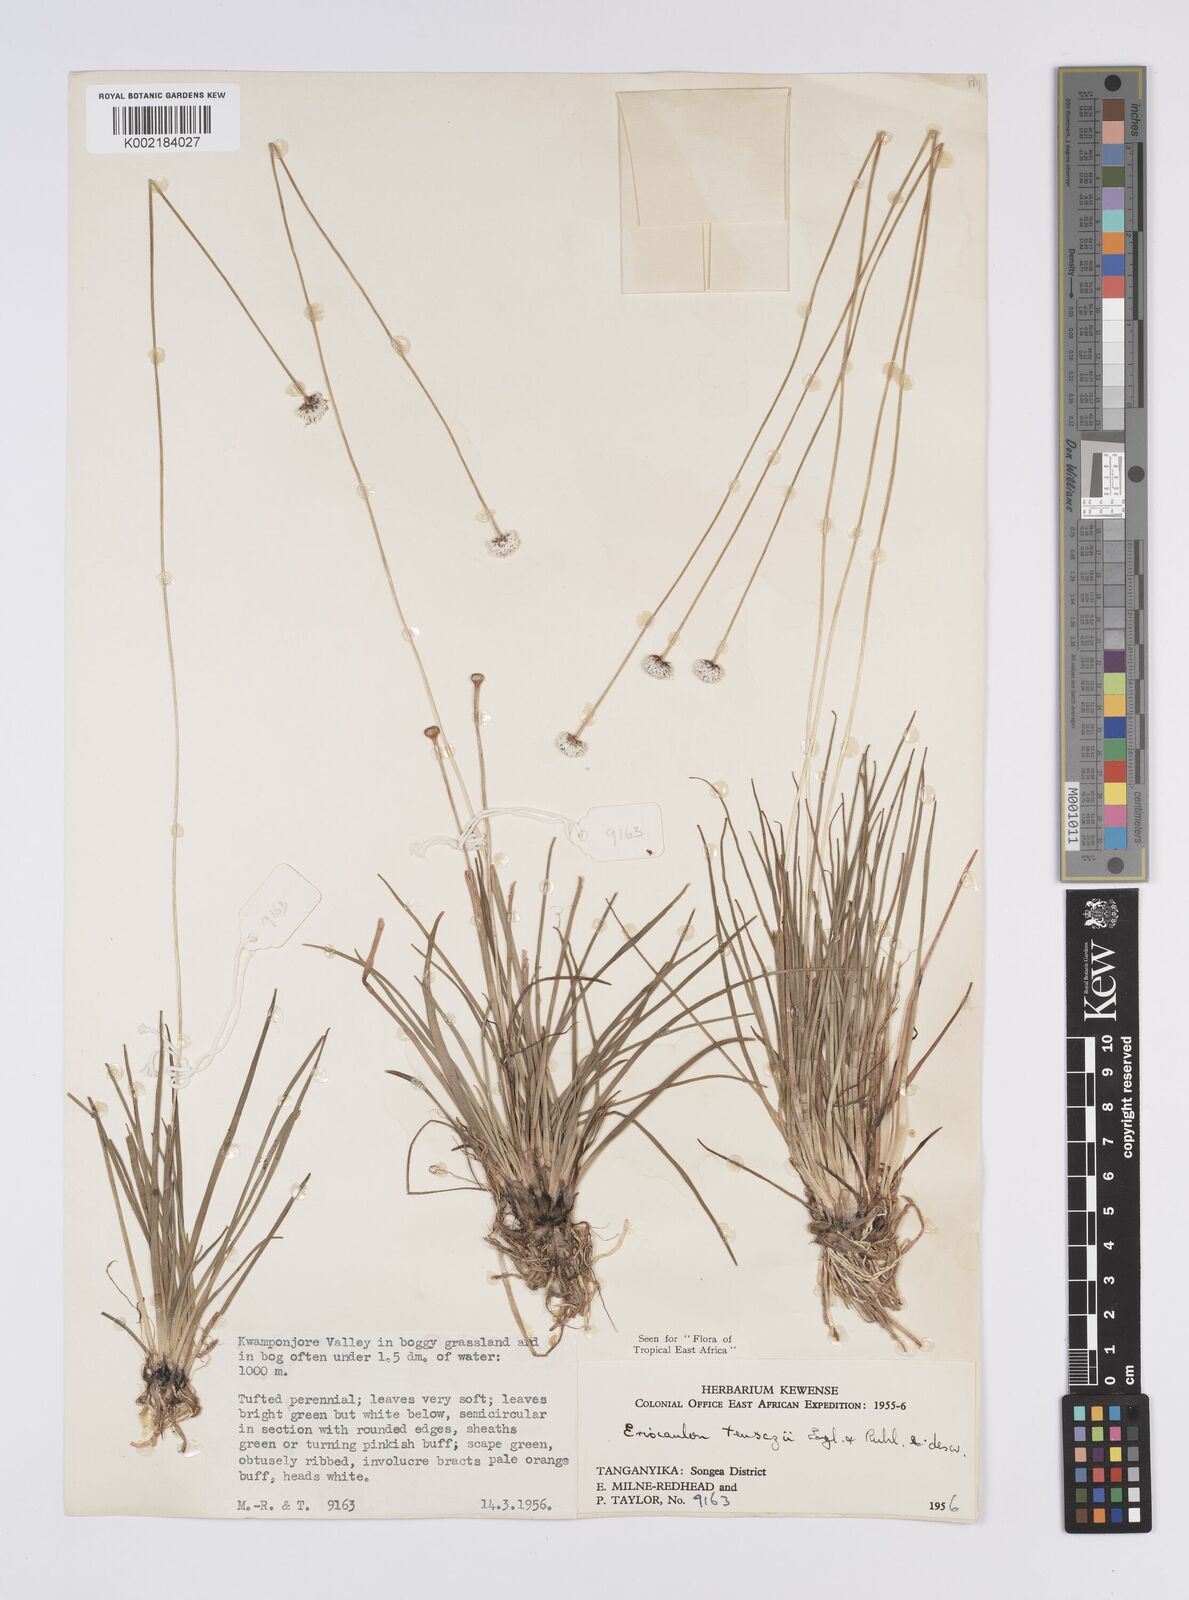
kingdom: Plantae
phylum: Tracheophyta
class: Liliopsida
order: Poales
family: Eriocaulaceae
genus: Eriocaulon
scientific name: Eriocaulon teusczii
